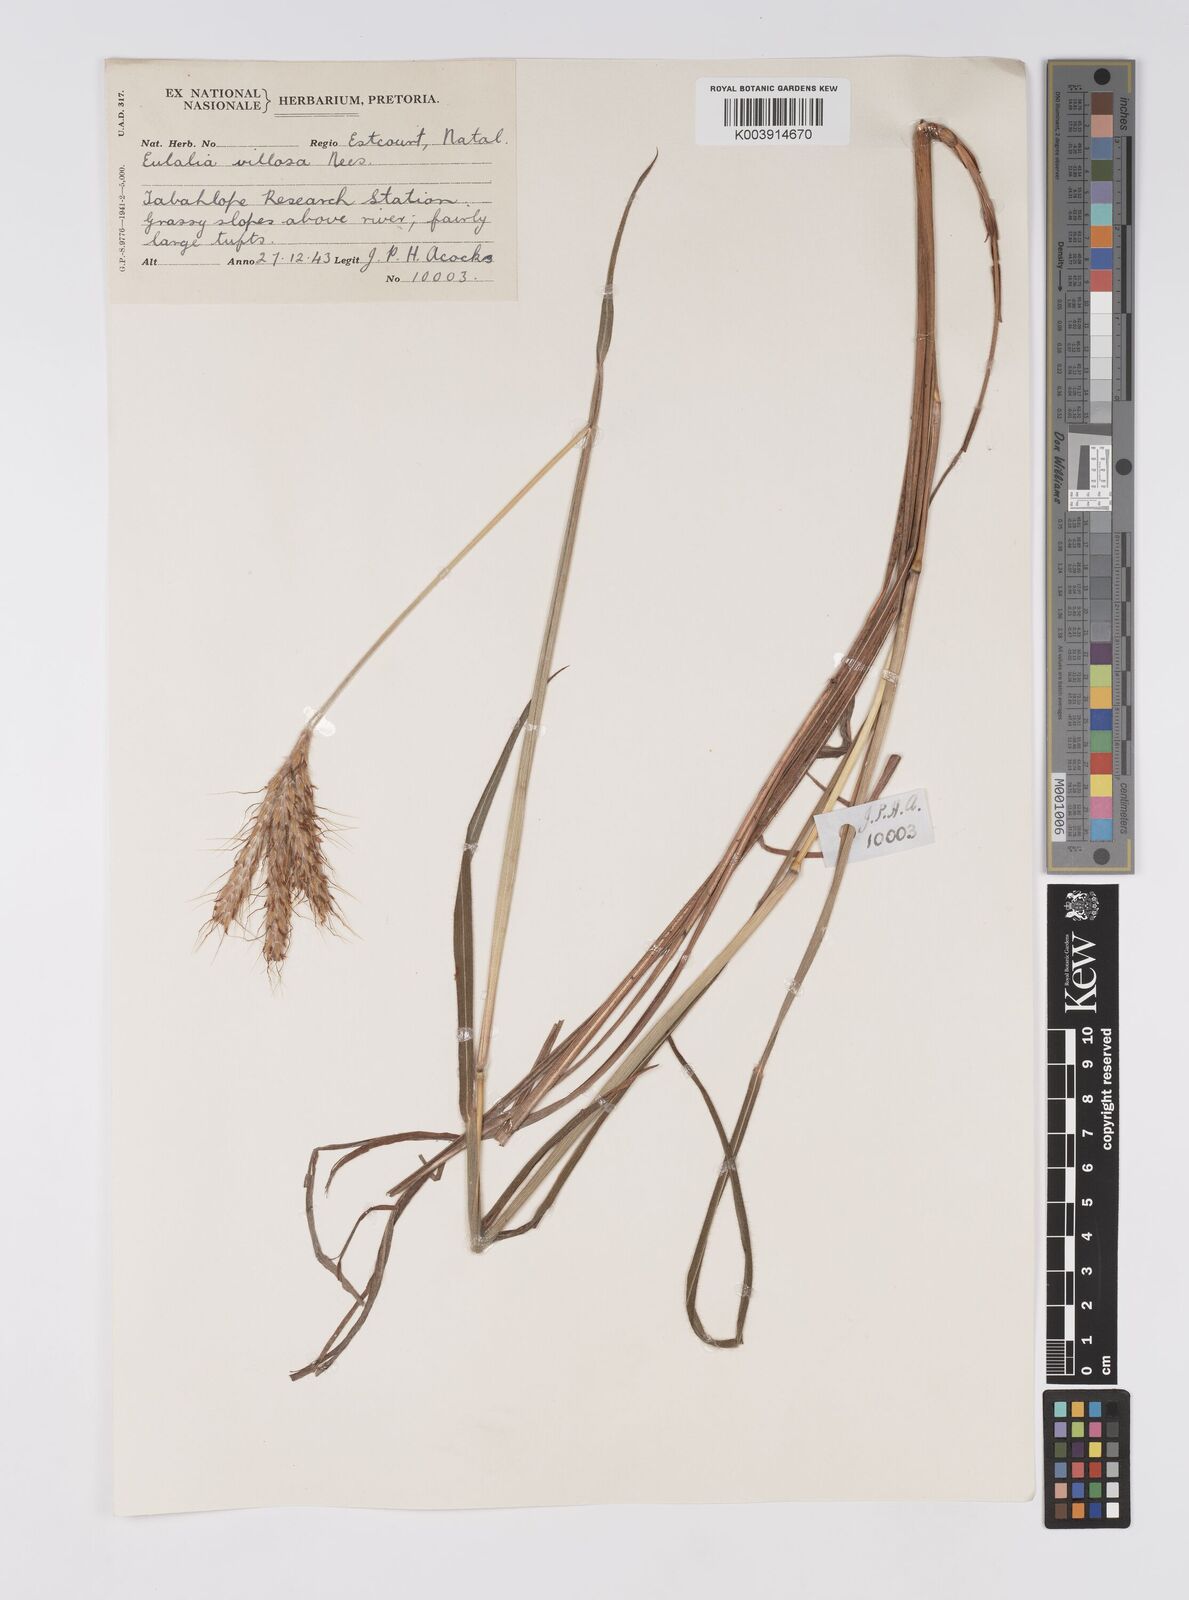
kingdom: Plantae
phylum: Tracheophyta
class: Liliopsida
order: Poales
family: Poaceae
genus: Eulalia
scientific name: Eulalia villosa
